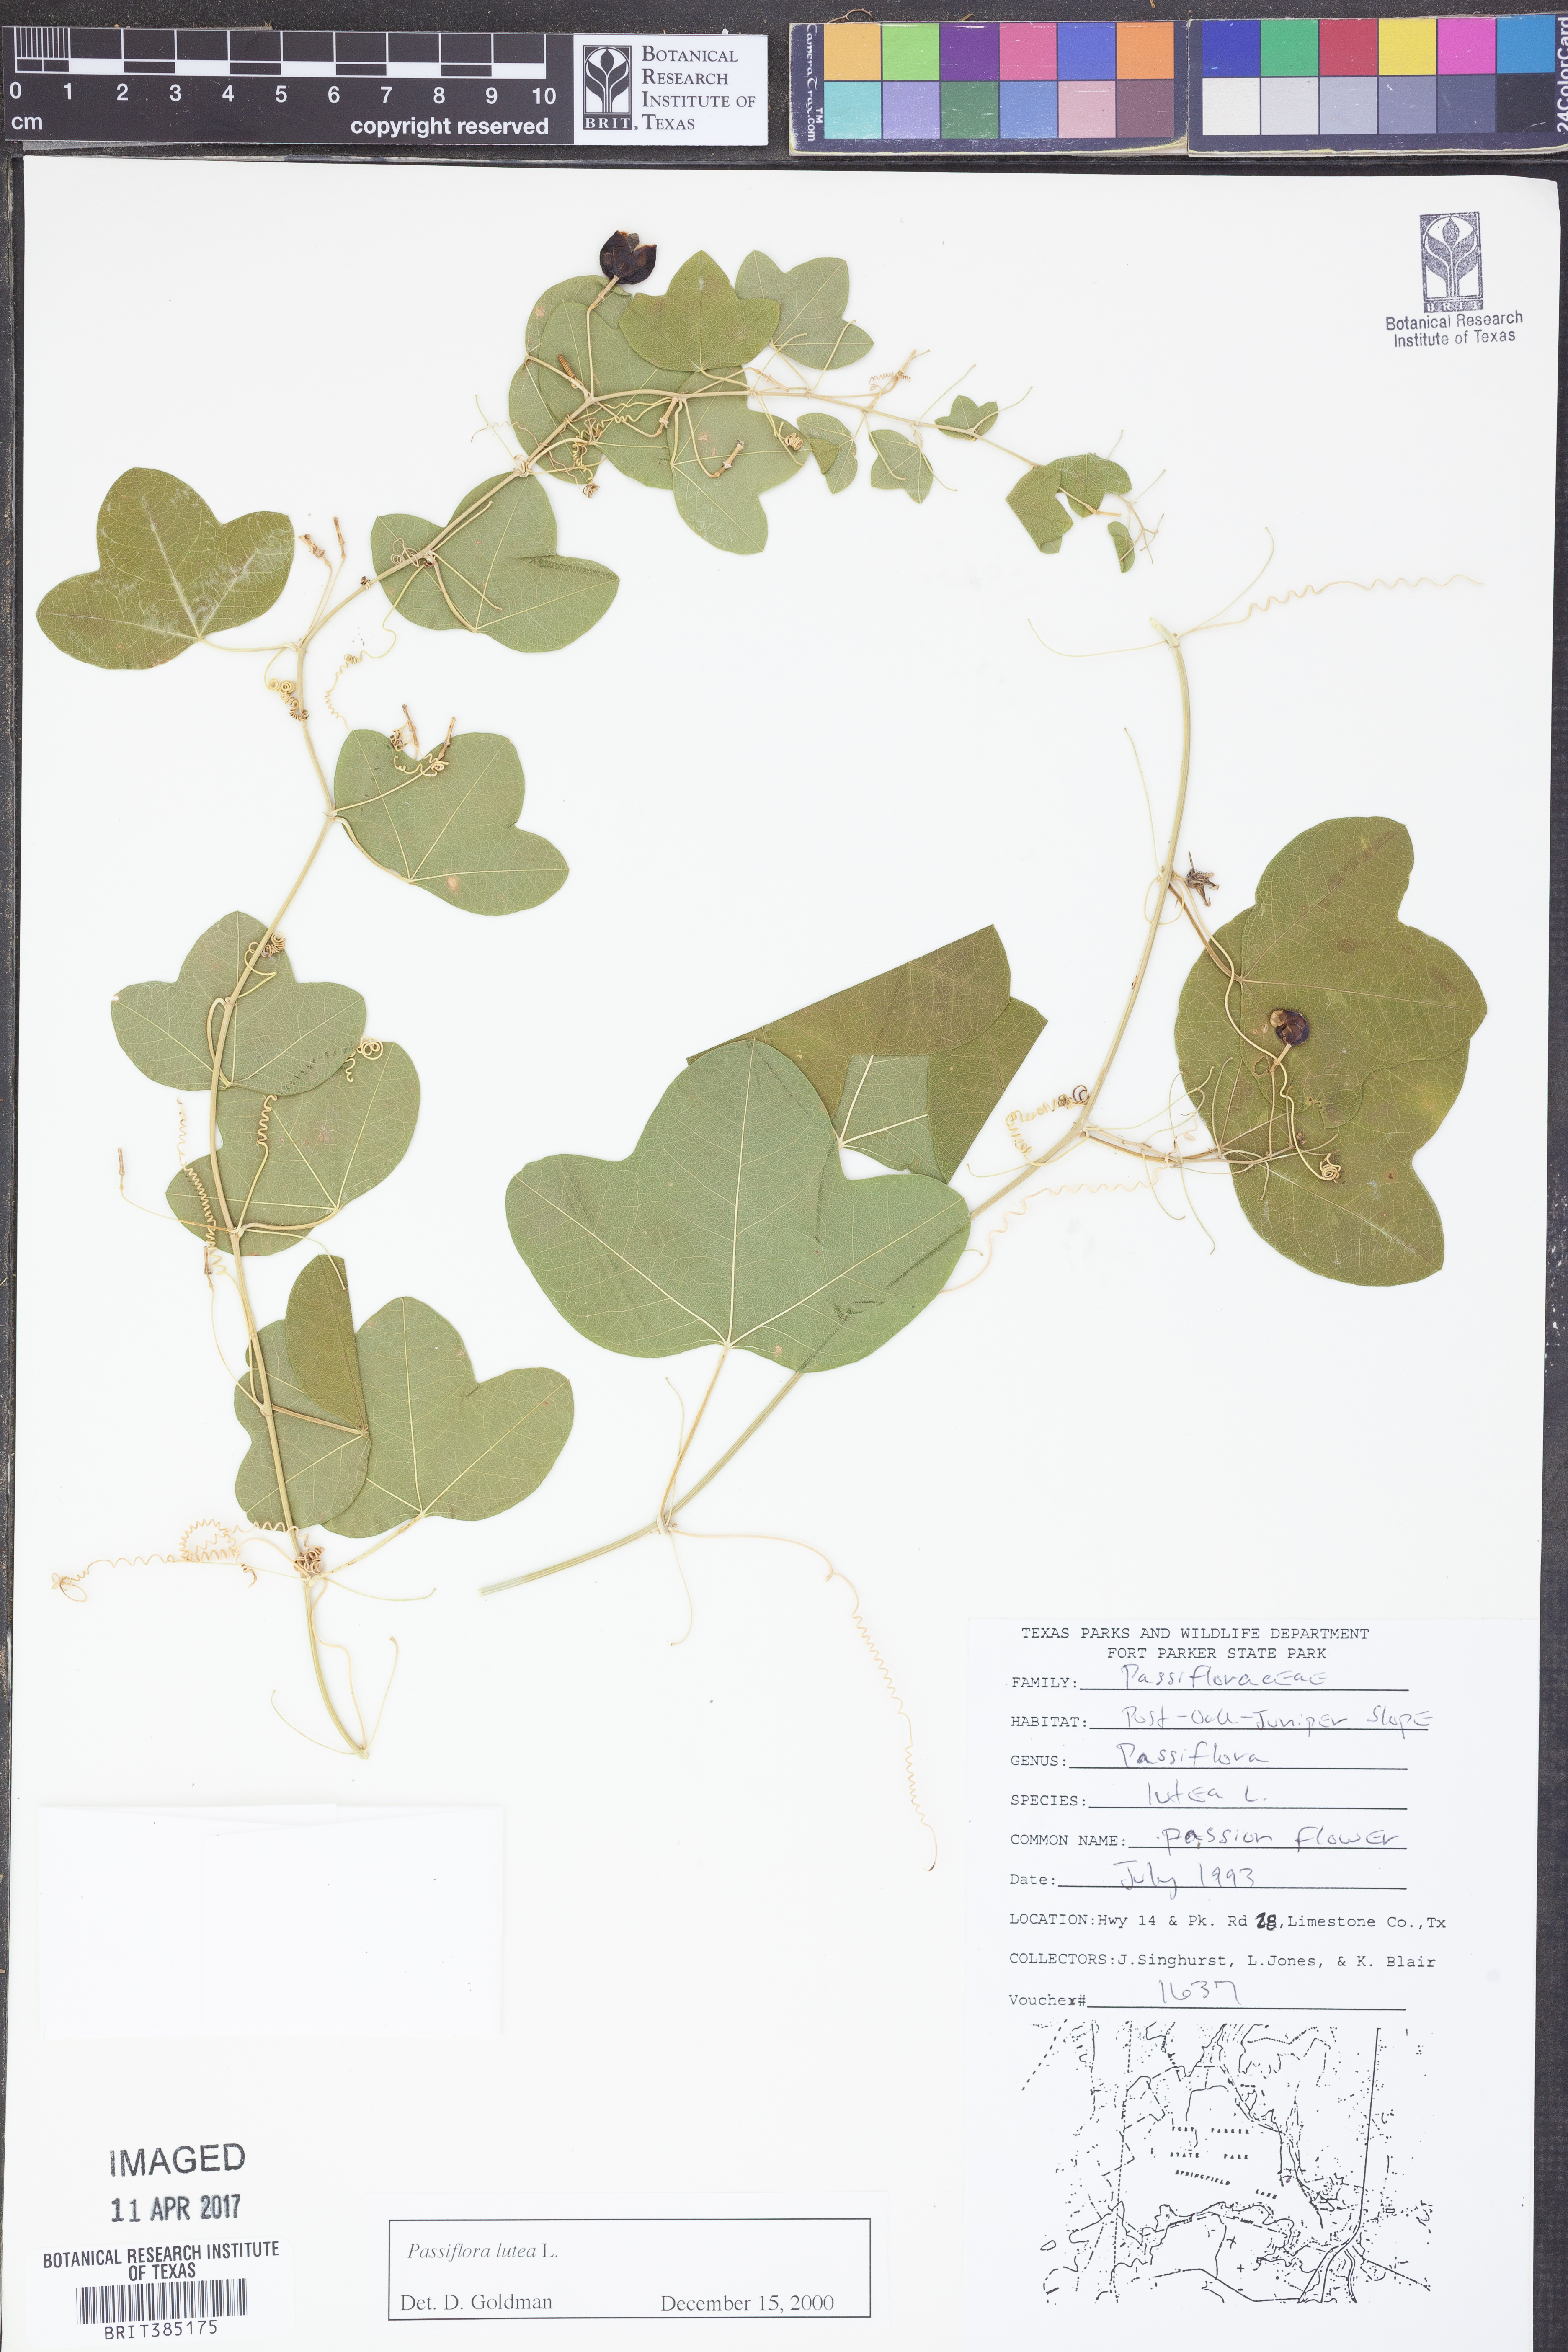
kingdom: Plantae
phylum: Tracheophyta
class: Magnoliopsida
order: Malpighiales
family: Passifloraceae
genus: Passiflora
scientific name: Passiflora lutea
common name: Yellow passionflower
